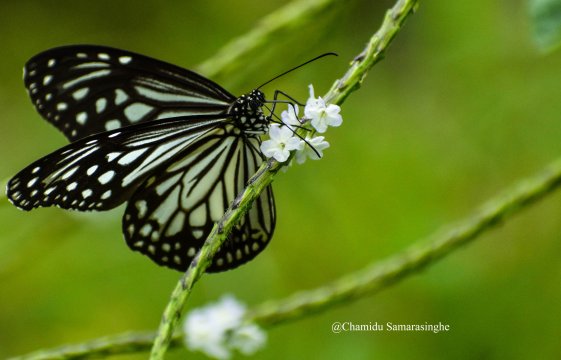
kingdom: Animalia
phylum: Arthropoda
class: Insecta
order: Lepidoptera
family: Nymphalidae
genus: Parantica
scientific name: Parantica aglea
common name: Glassy Tiger
